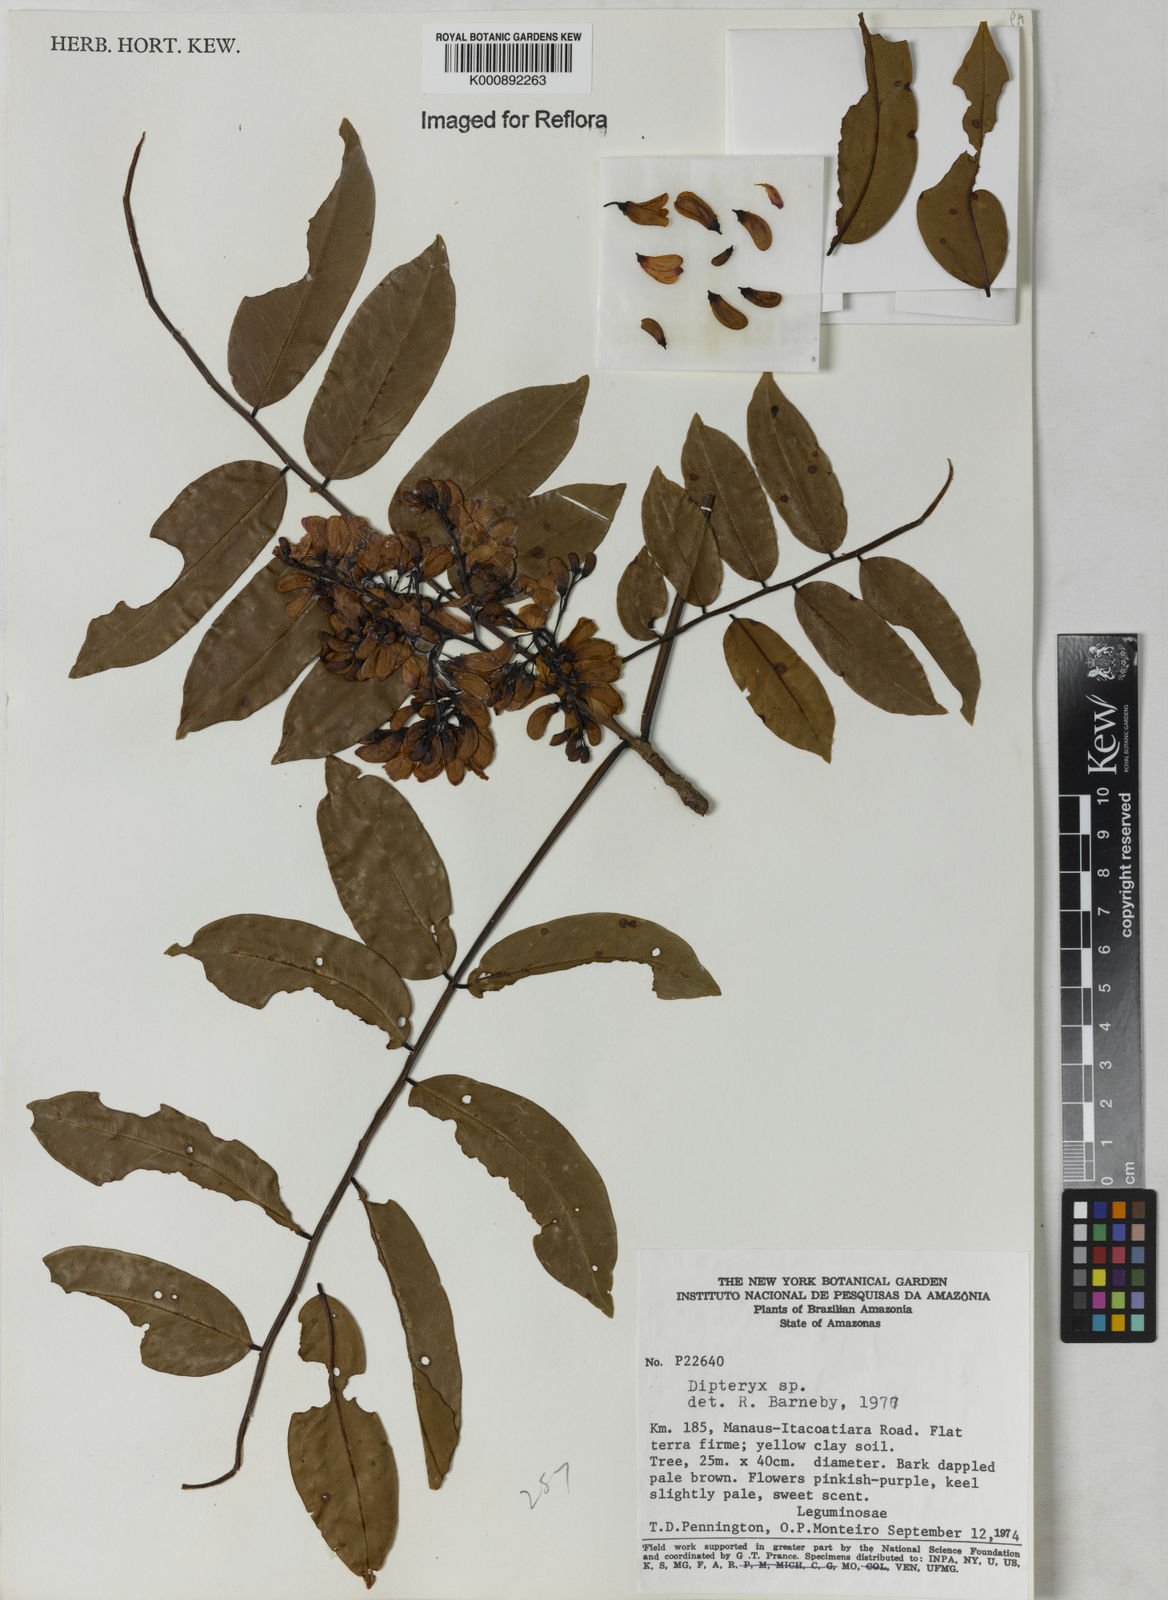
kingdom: Plantae
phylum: Tracheophyta
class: Magnoliopsida
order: Fabales
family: Fabaceae
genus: Dipteryx
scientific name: Dipteryx
